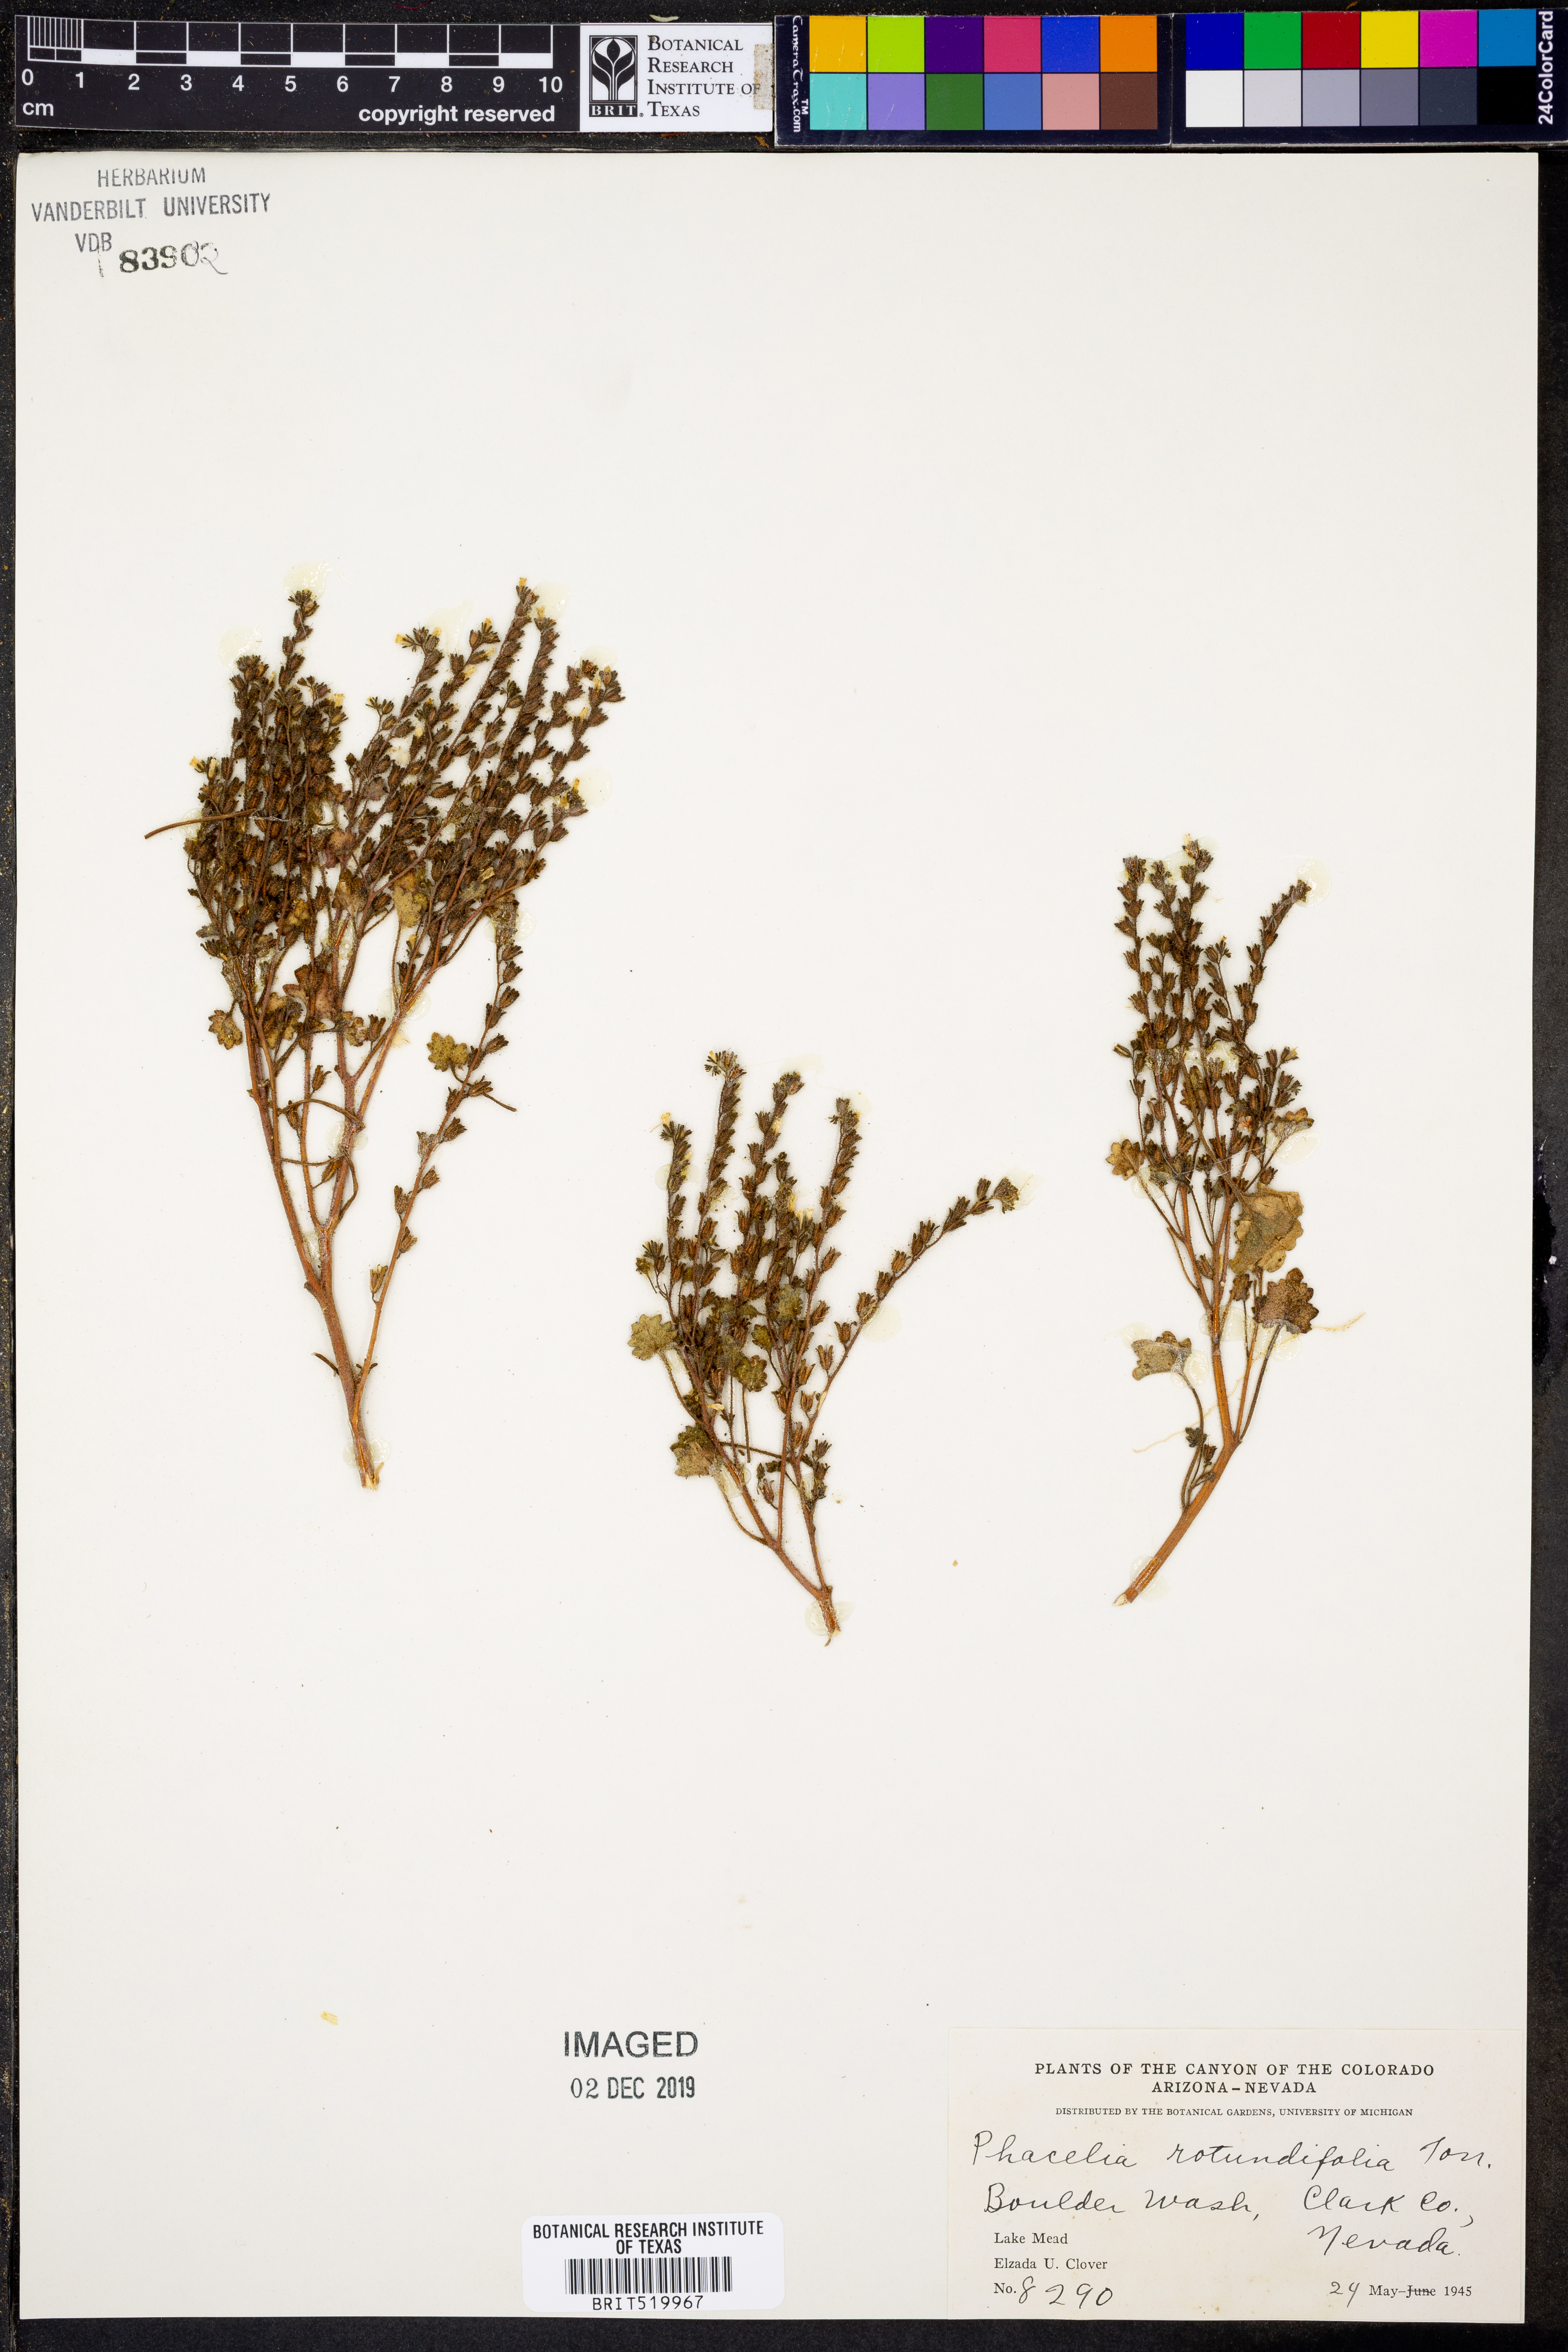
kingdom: Plantae
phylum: Tracheophyta
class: Magnoliopsida
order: Boraginales
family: Hydrophyllaceae
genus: Phacelia
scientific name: Phacelia rotundifolia
